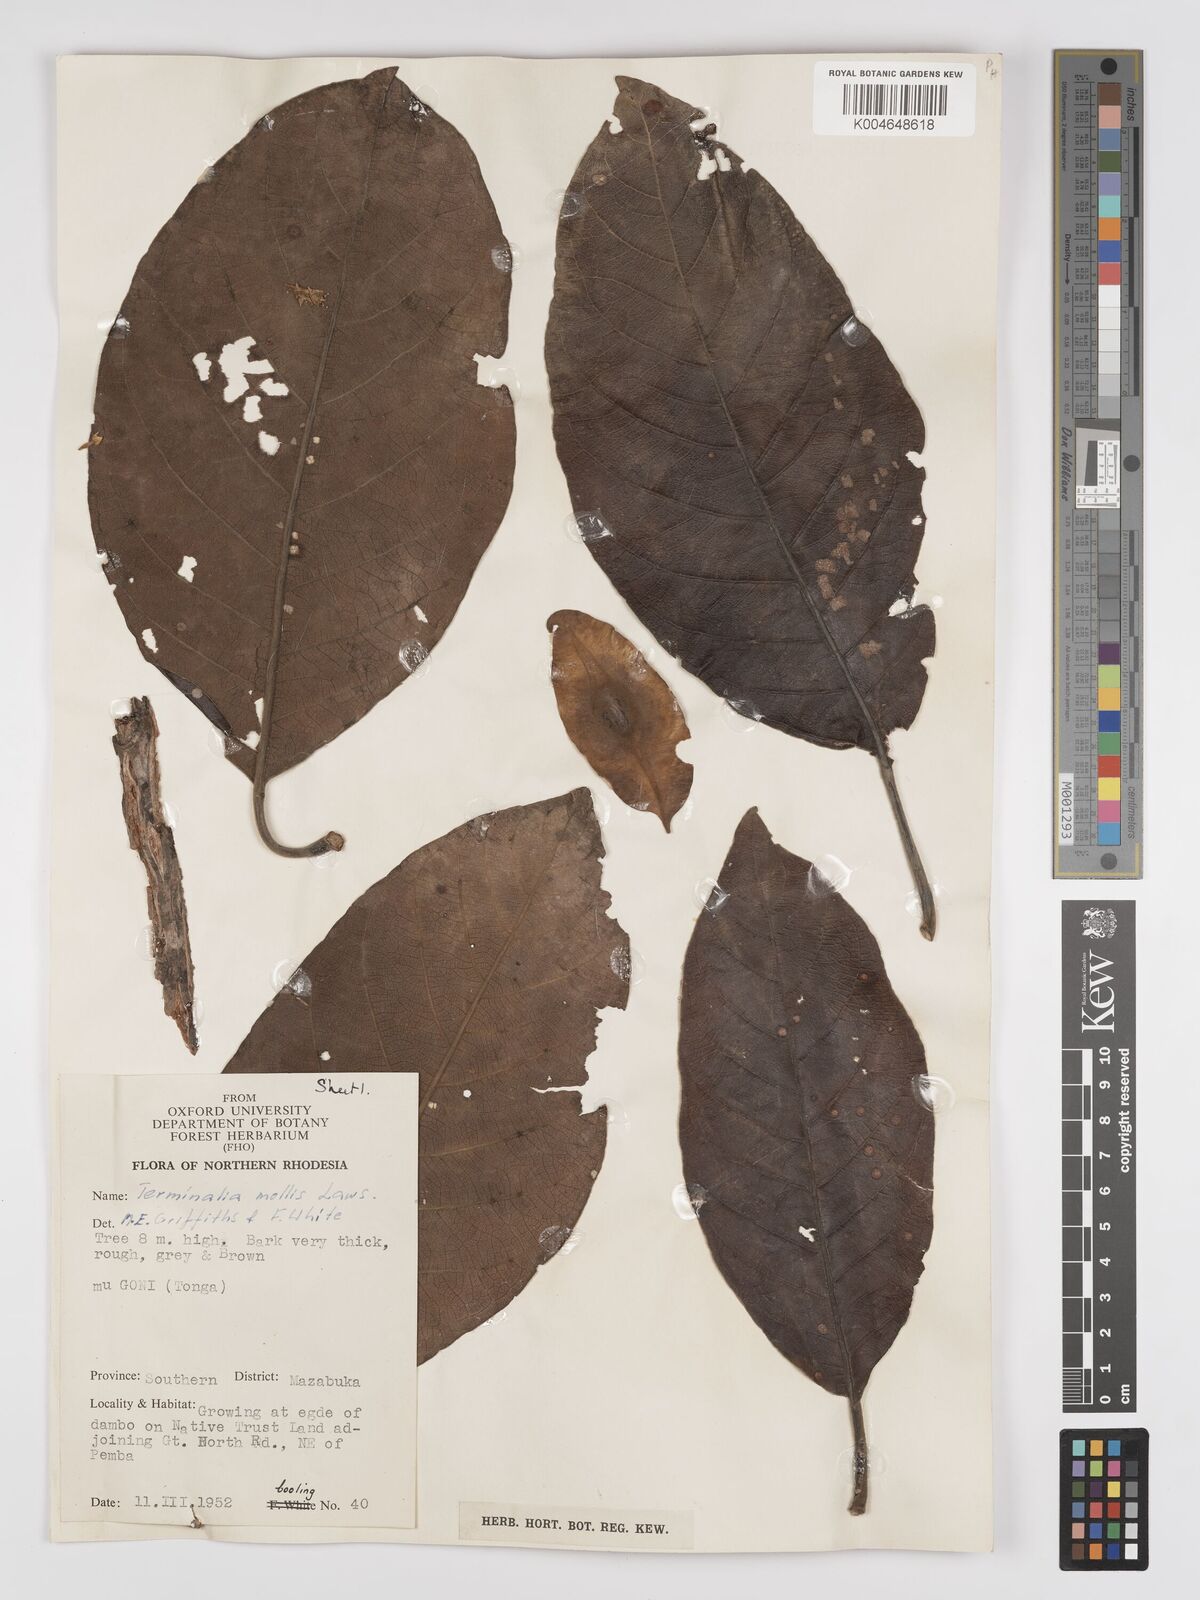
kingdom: Plantae
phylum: Tracheophyta
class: Magnoliopsida
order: Myrtales
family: Combretaceae
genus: Terminalia
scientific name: Terminalia
